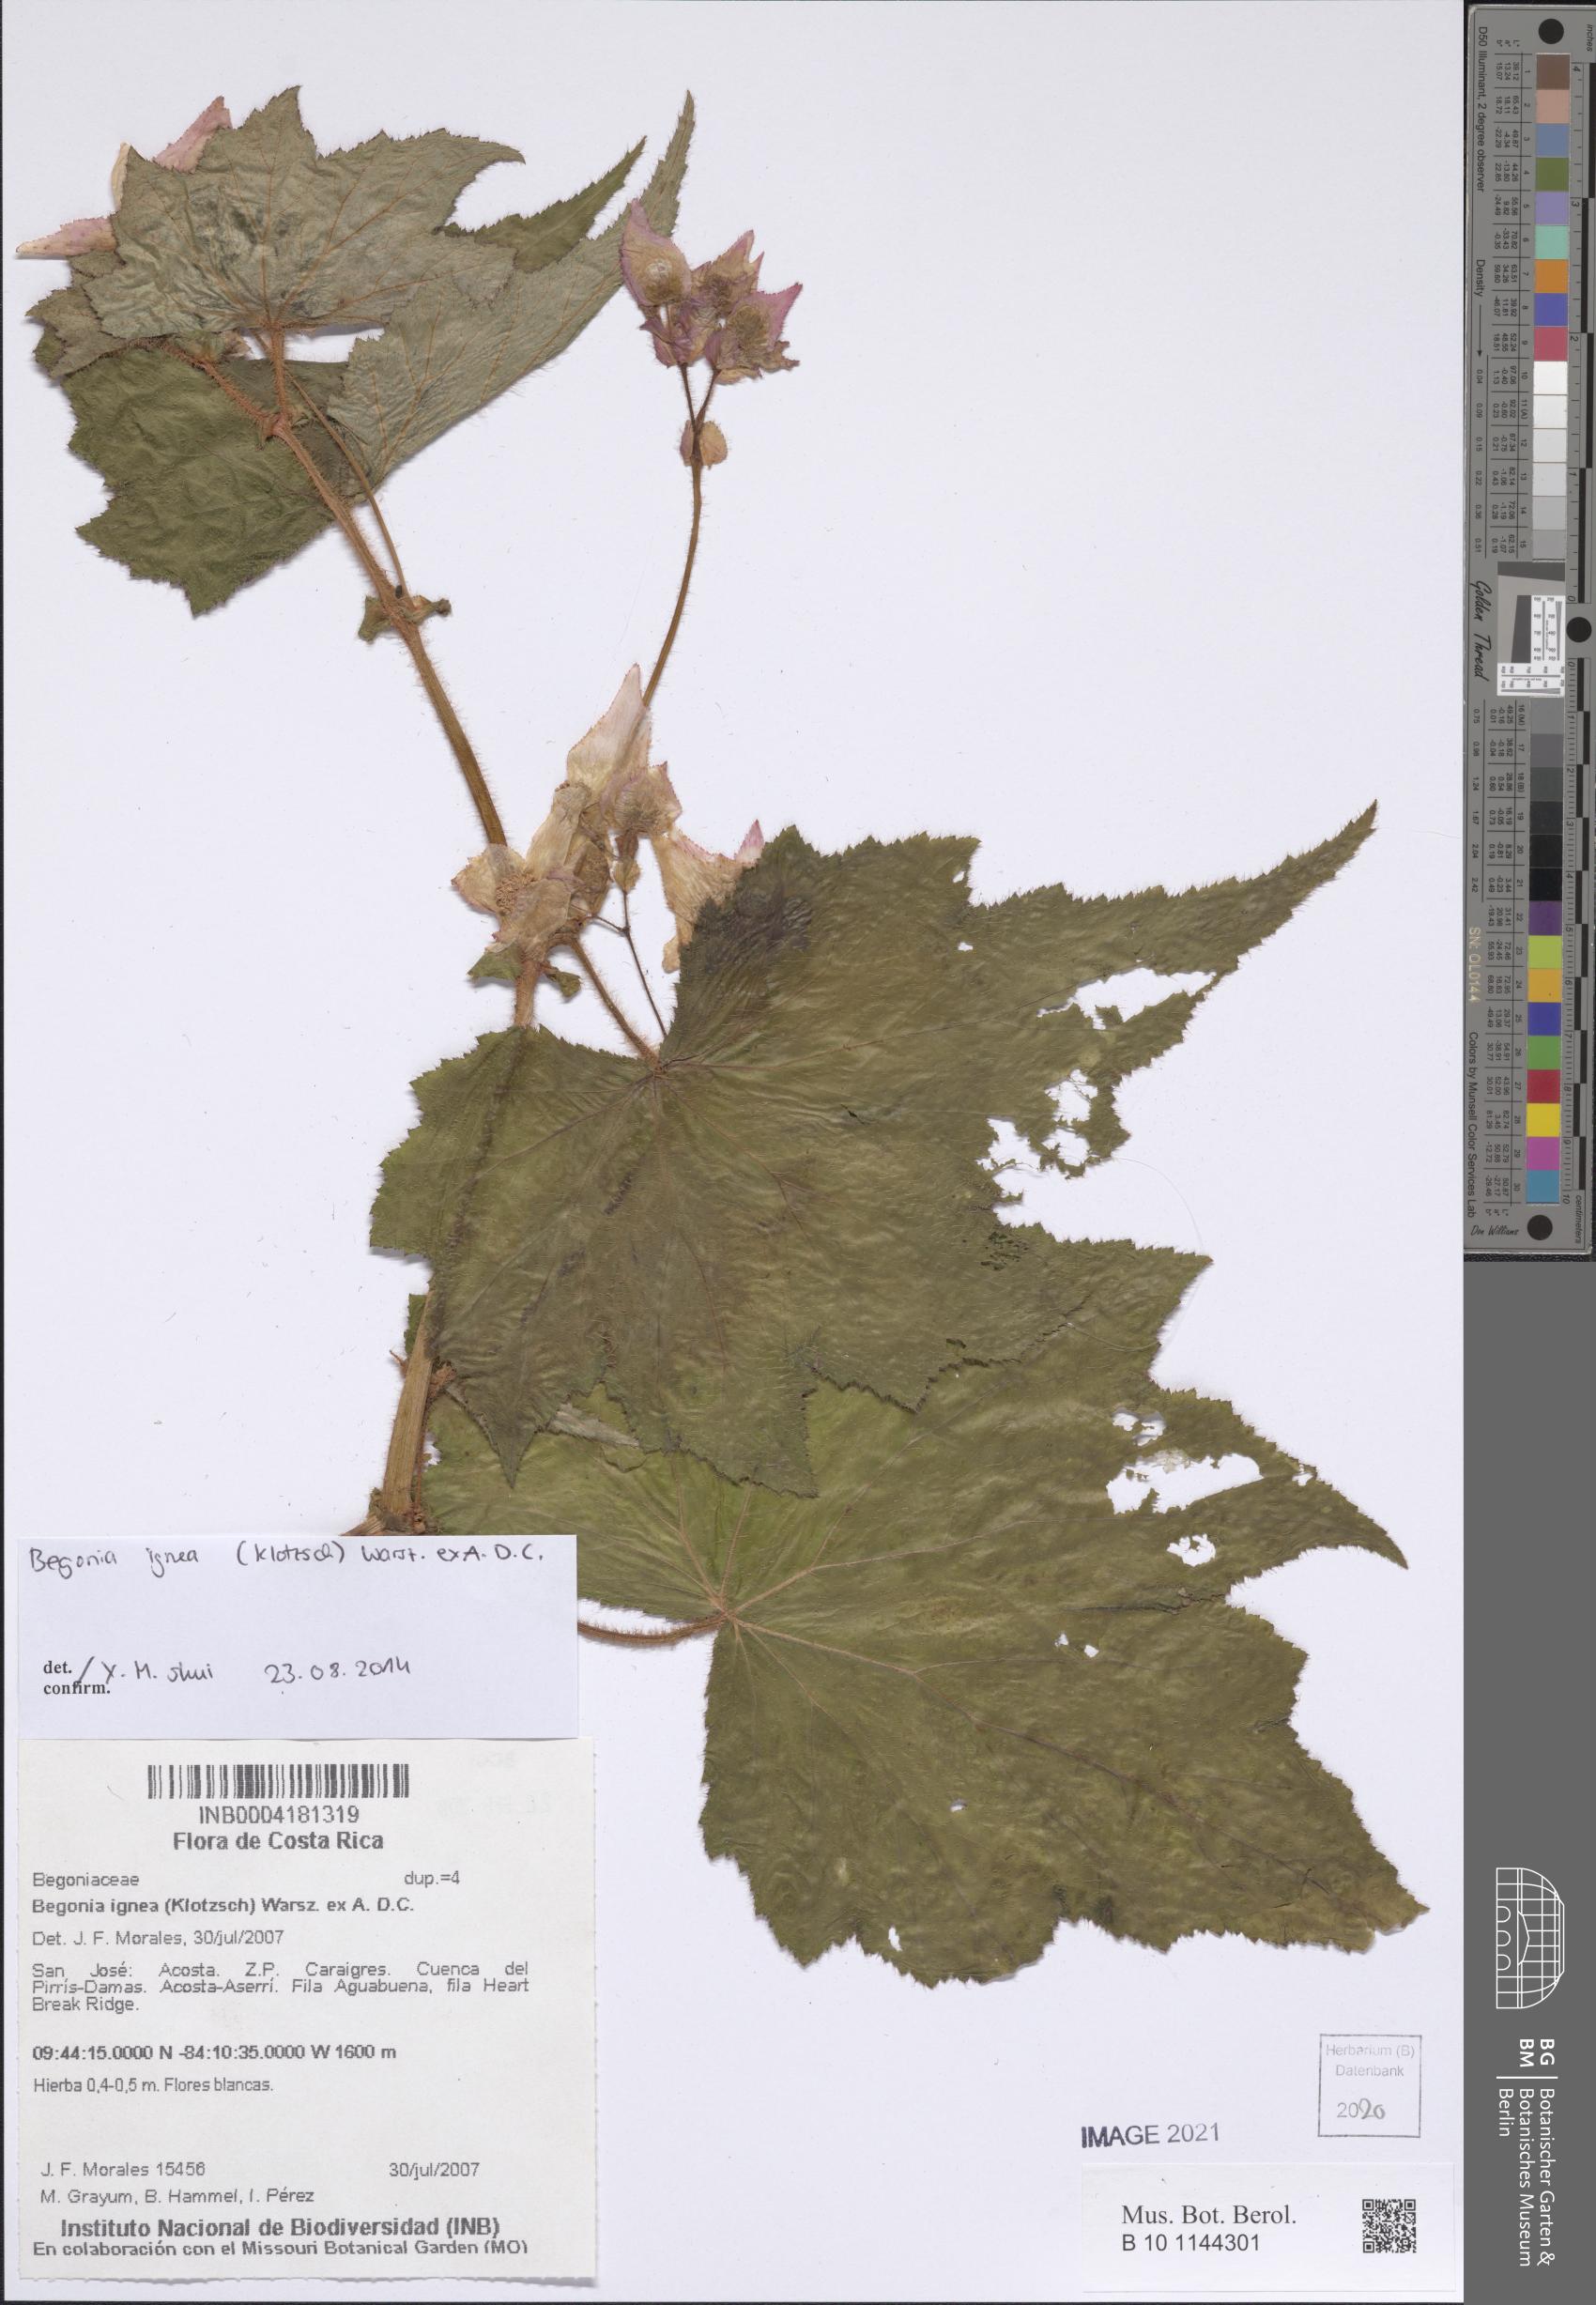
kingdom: Plantae
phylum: Tracheophyta
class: Magnoliopsida
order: Cucurbitales
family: Begoniaceae
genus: Begonia
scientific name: Begonia ignea
